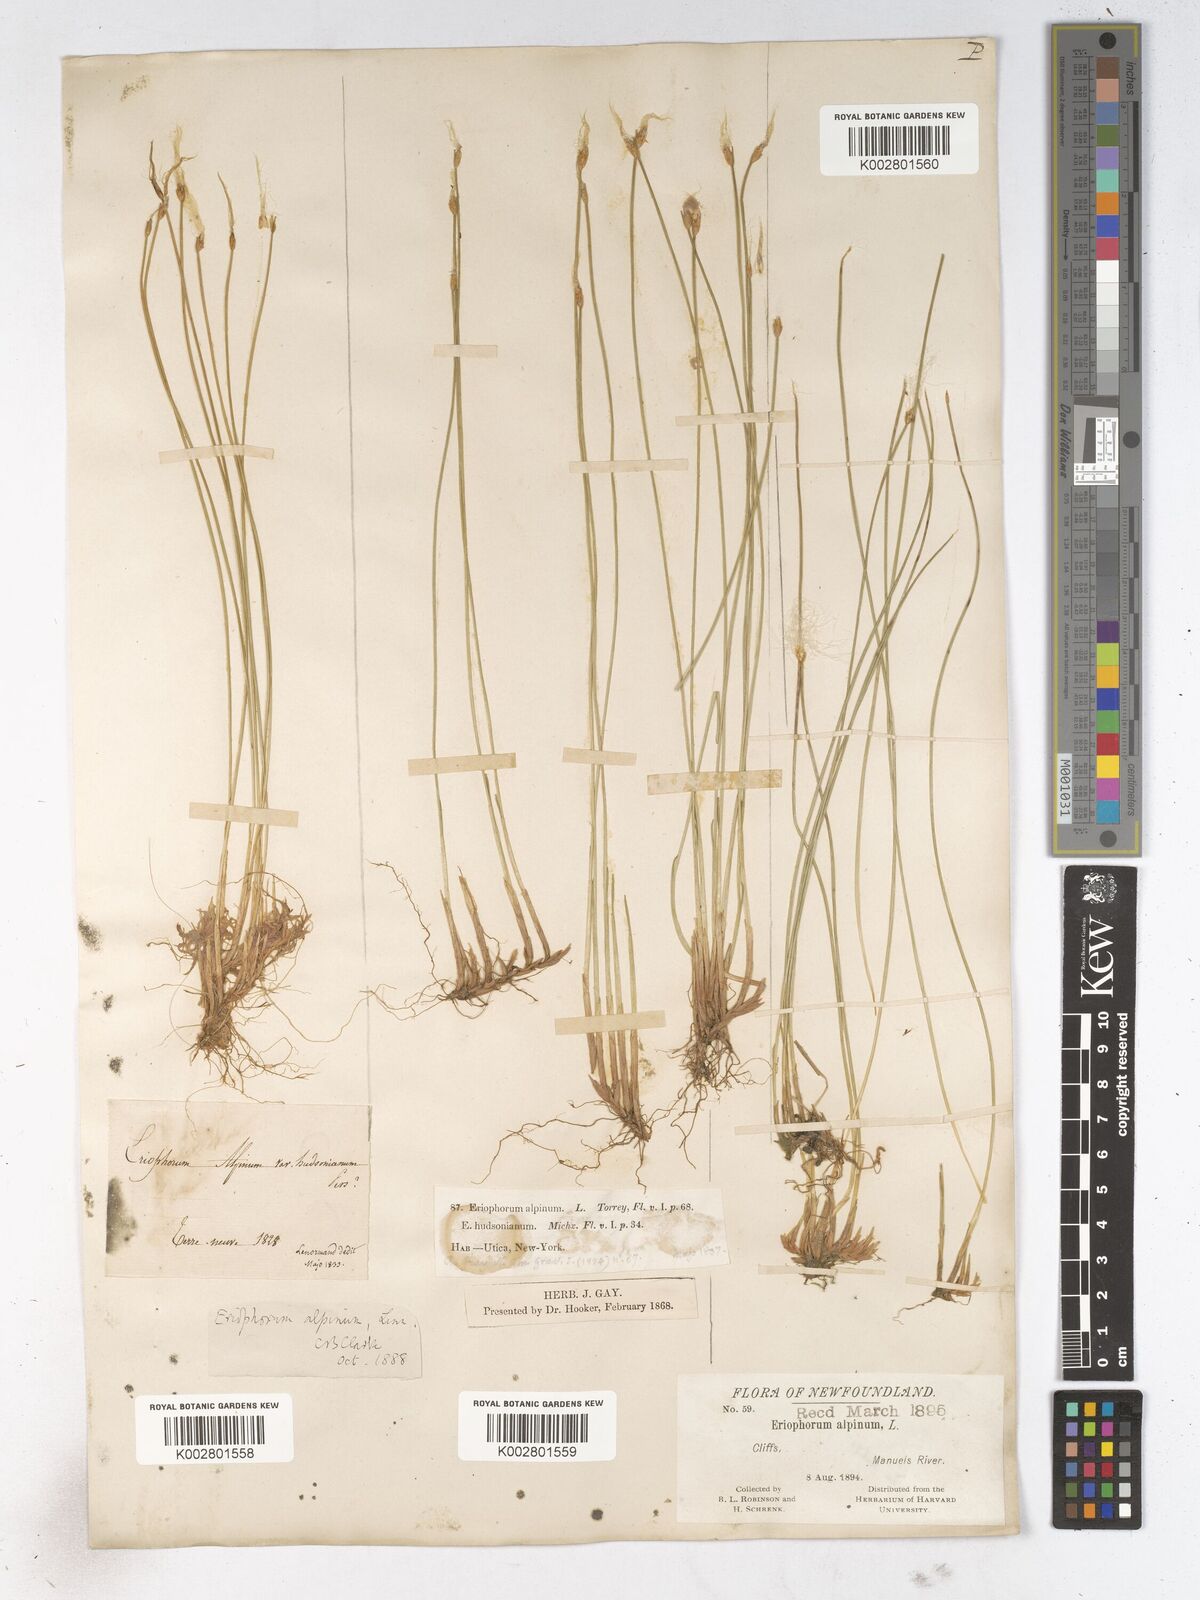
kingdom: Plantae
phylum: Tracheophyta
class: Liliopsida
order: Poales
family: Cyperaceae
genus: Trichophorum
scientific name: Trichophorum alpinum
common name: Alpine bulrush
